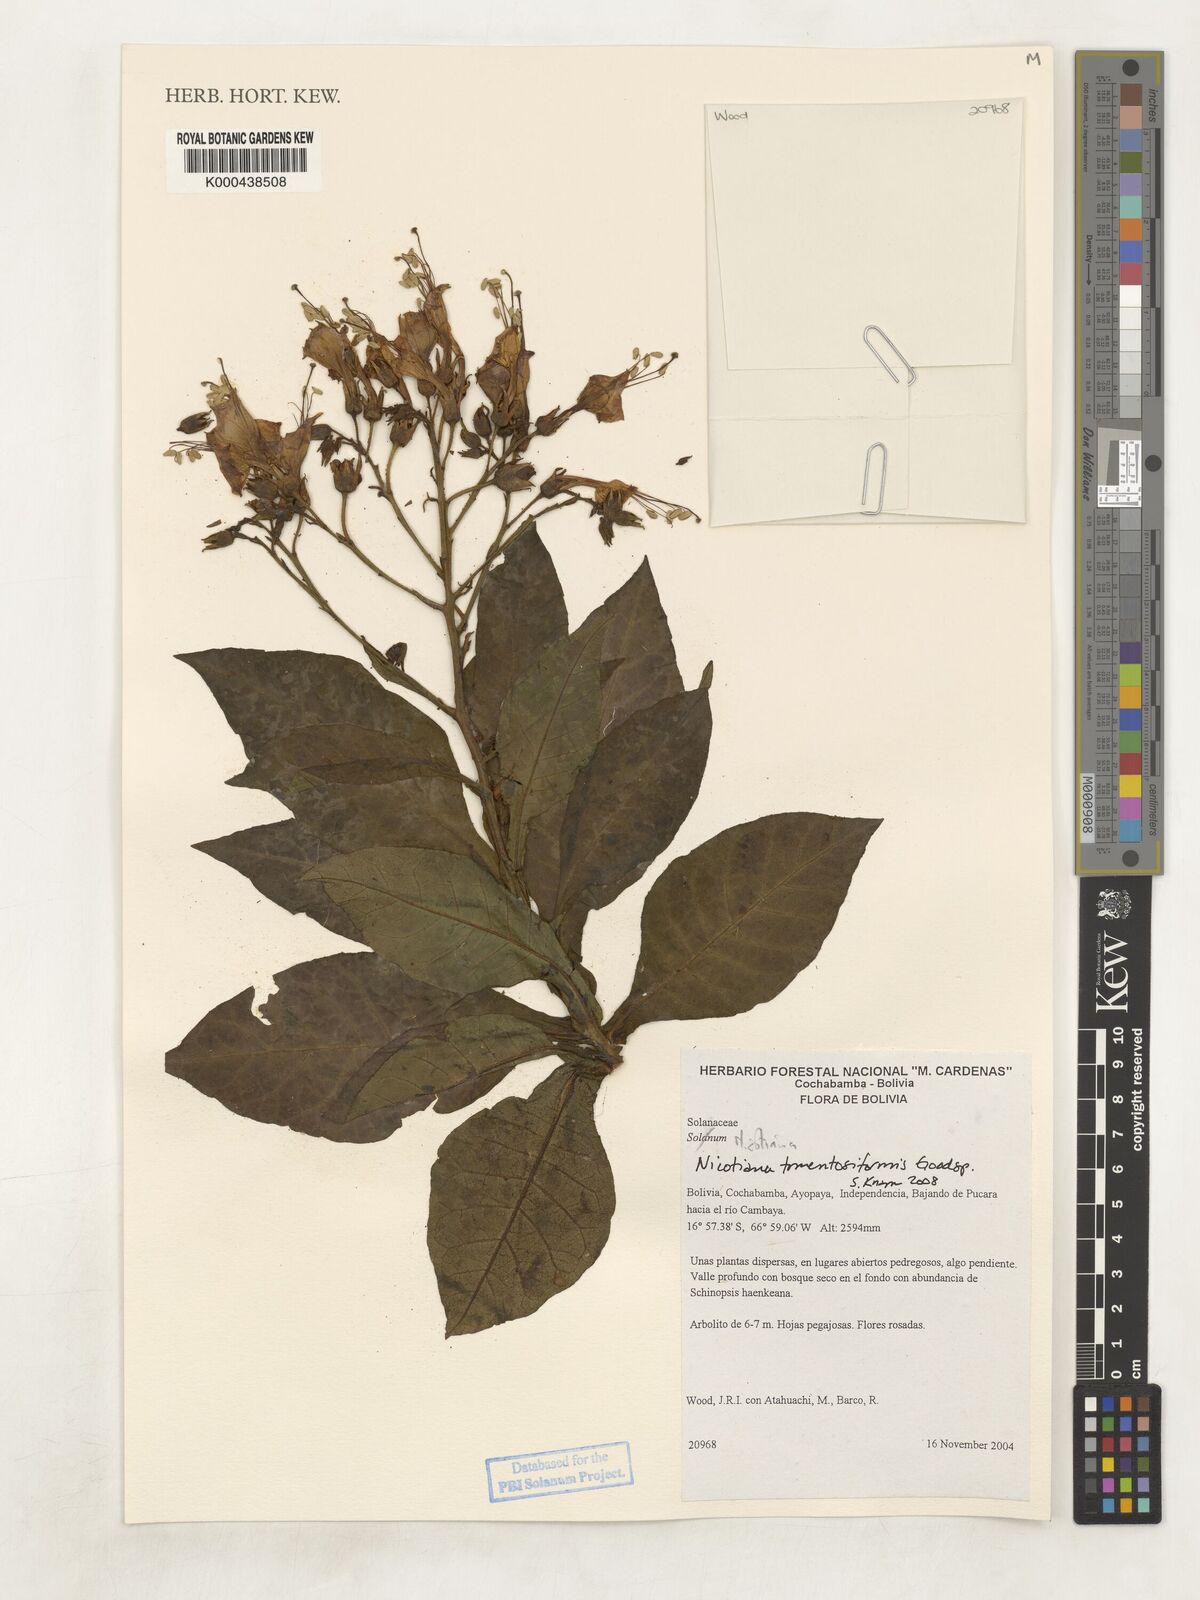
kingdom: Plantae
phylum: Tracheophyta
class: Magnoliopsida
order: Solanales
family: Solanaceae
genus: Nicotiana
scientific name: Nicotiana tomentosiformis
